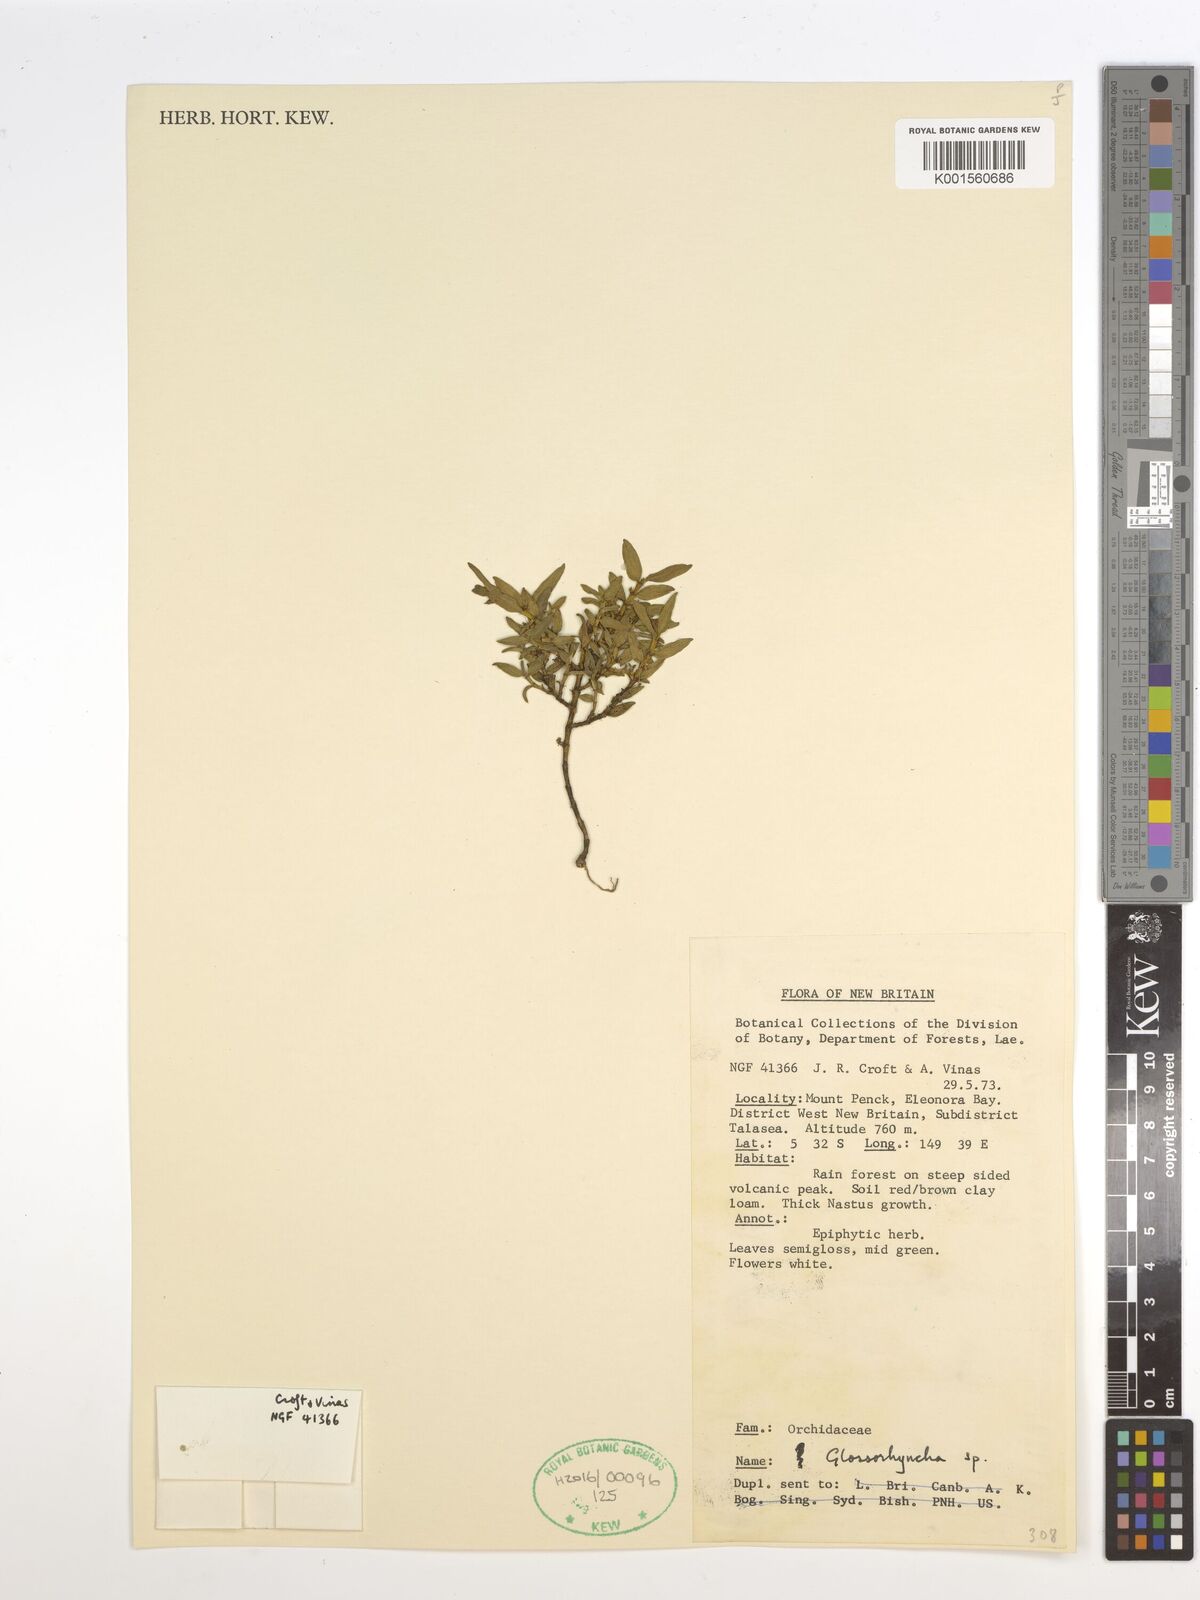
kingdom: Plantae
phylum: Tracheophyta
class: Liliopsida
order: Asparagales
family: Orchidaceae
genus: Glomera
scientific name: Glomera
